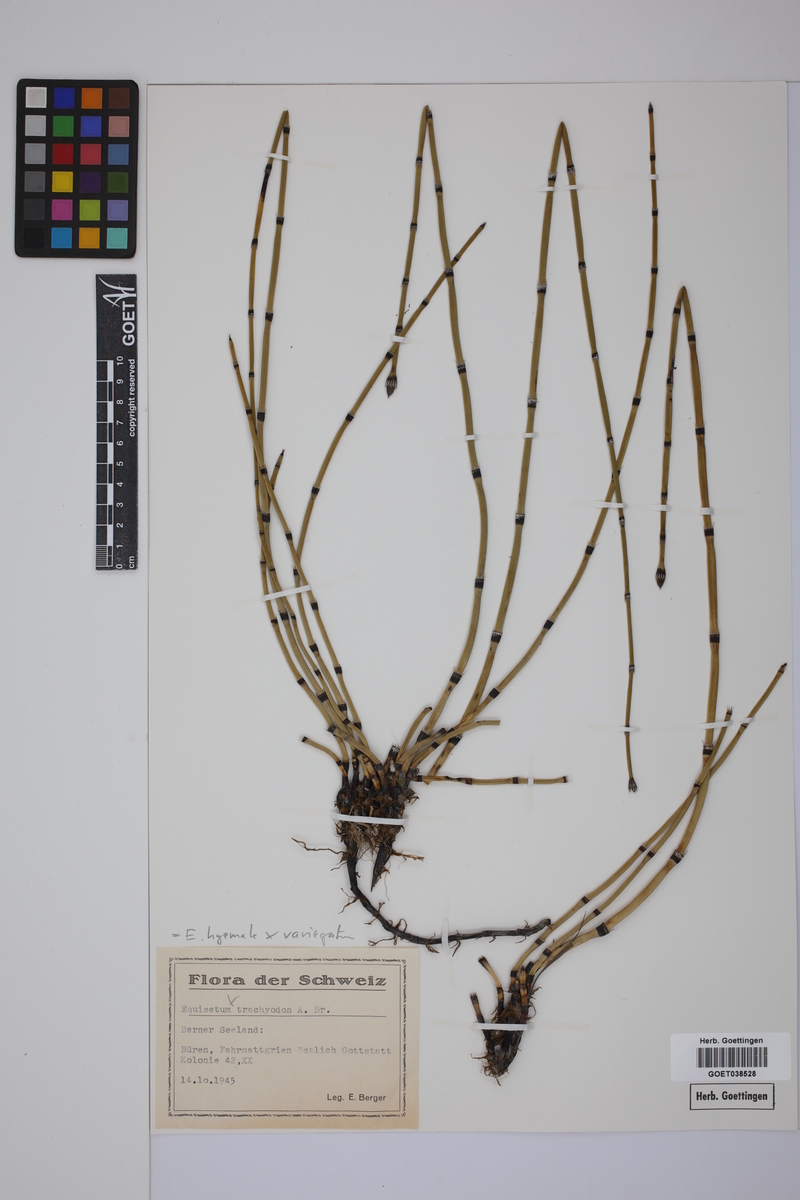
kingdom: Plantae
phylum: Tracheophyta
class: Polypodiopsida
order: Equisetales
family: Equisetaceae
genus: Equisetum
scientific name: Equisetum hyemale
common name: Rough horsetail
